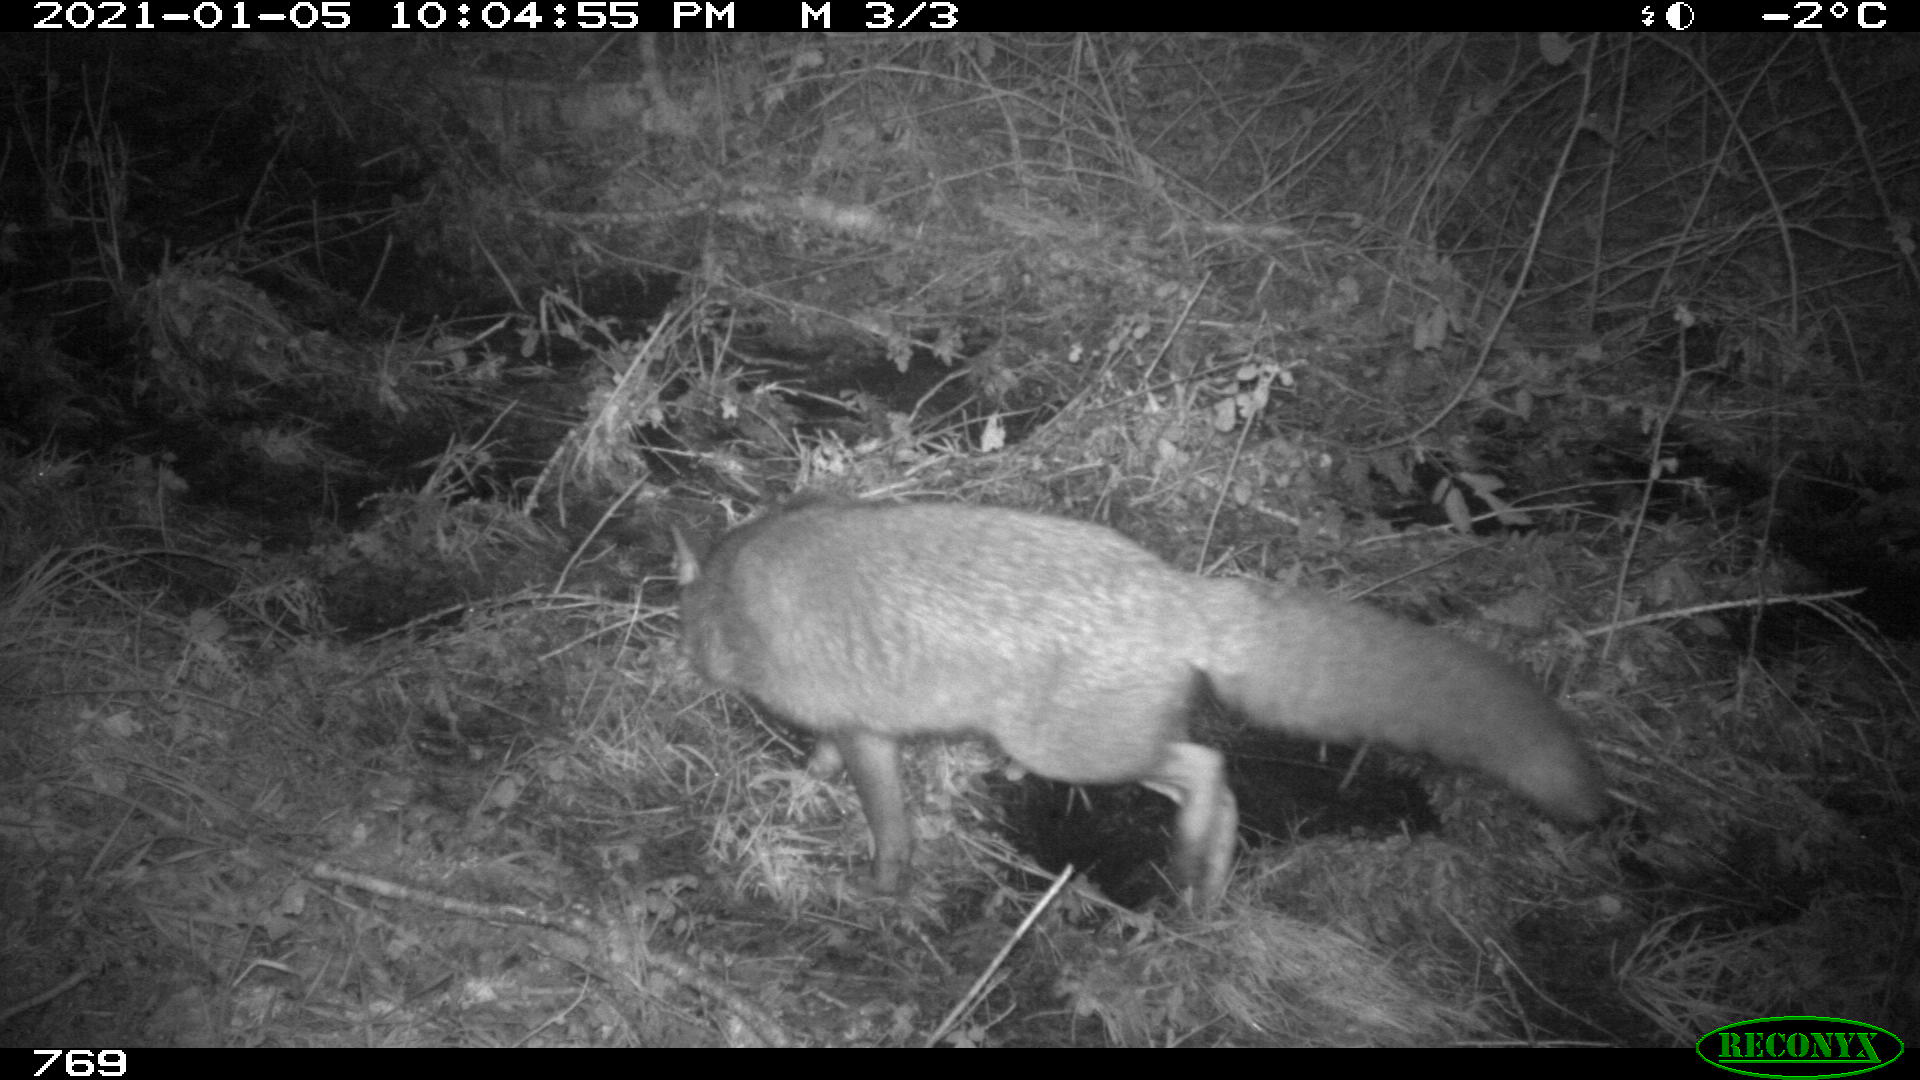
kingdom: Animalia
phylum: Chordata
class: Mammalia
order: Carnivora
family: Canidae
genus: Vulpes
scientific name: Vulpes vulpes
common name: Red fox
